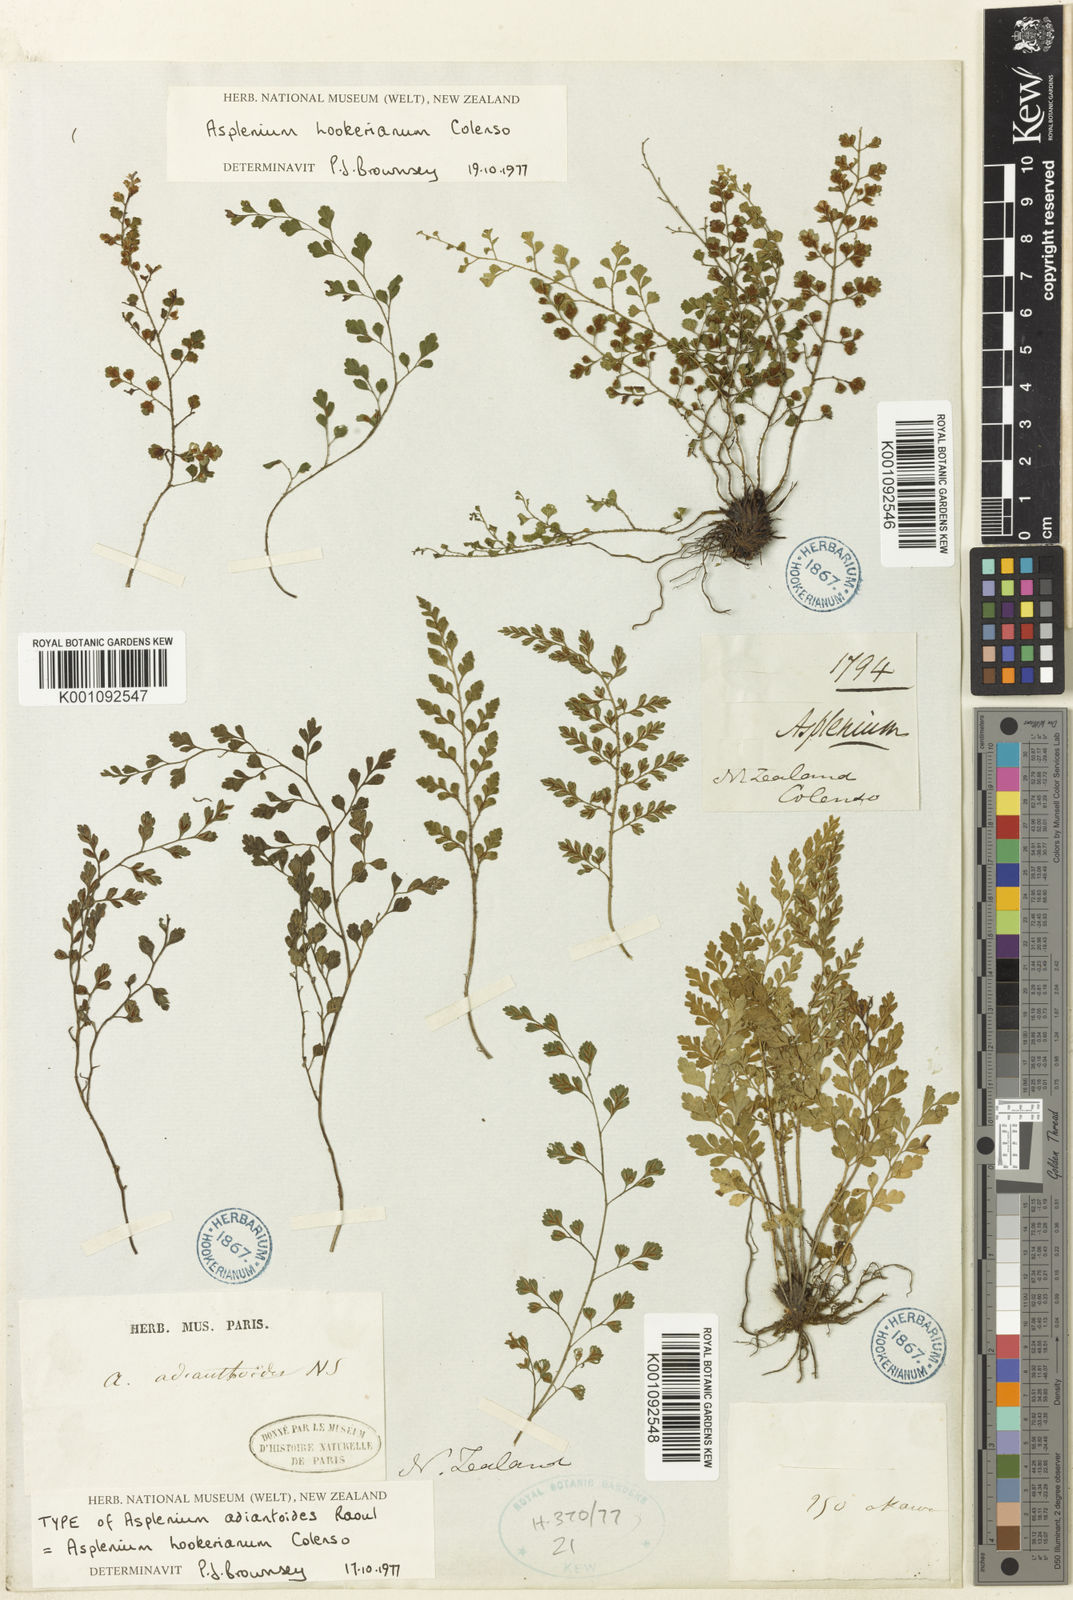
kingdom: Plantae
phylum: Tracheophyta
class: Polypodiopsida
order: Polypodiales
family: Aspleniaceae
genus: Asplenium
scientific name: Asplenium hookerianum
